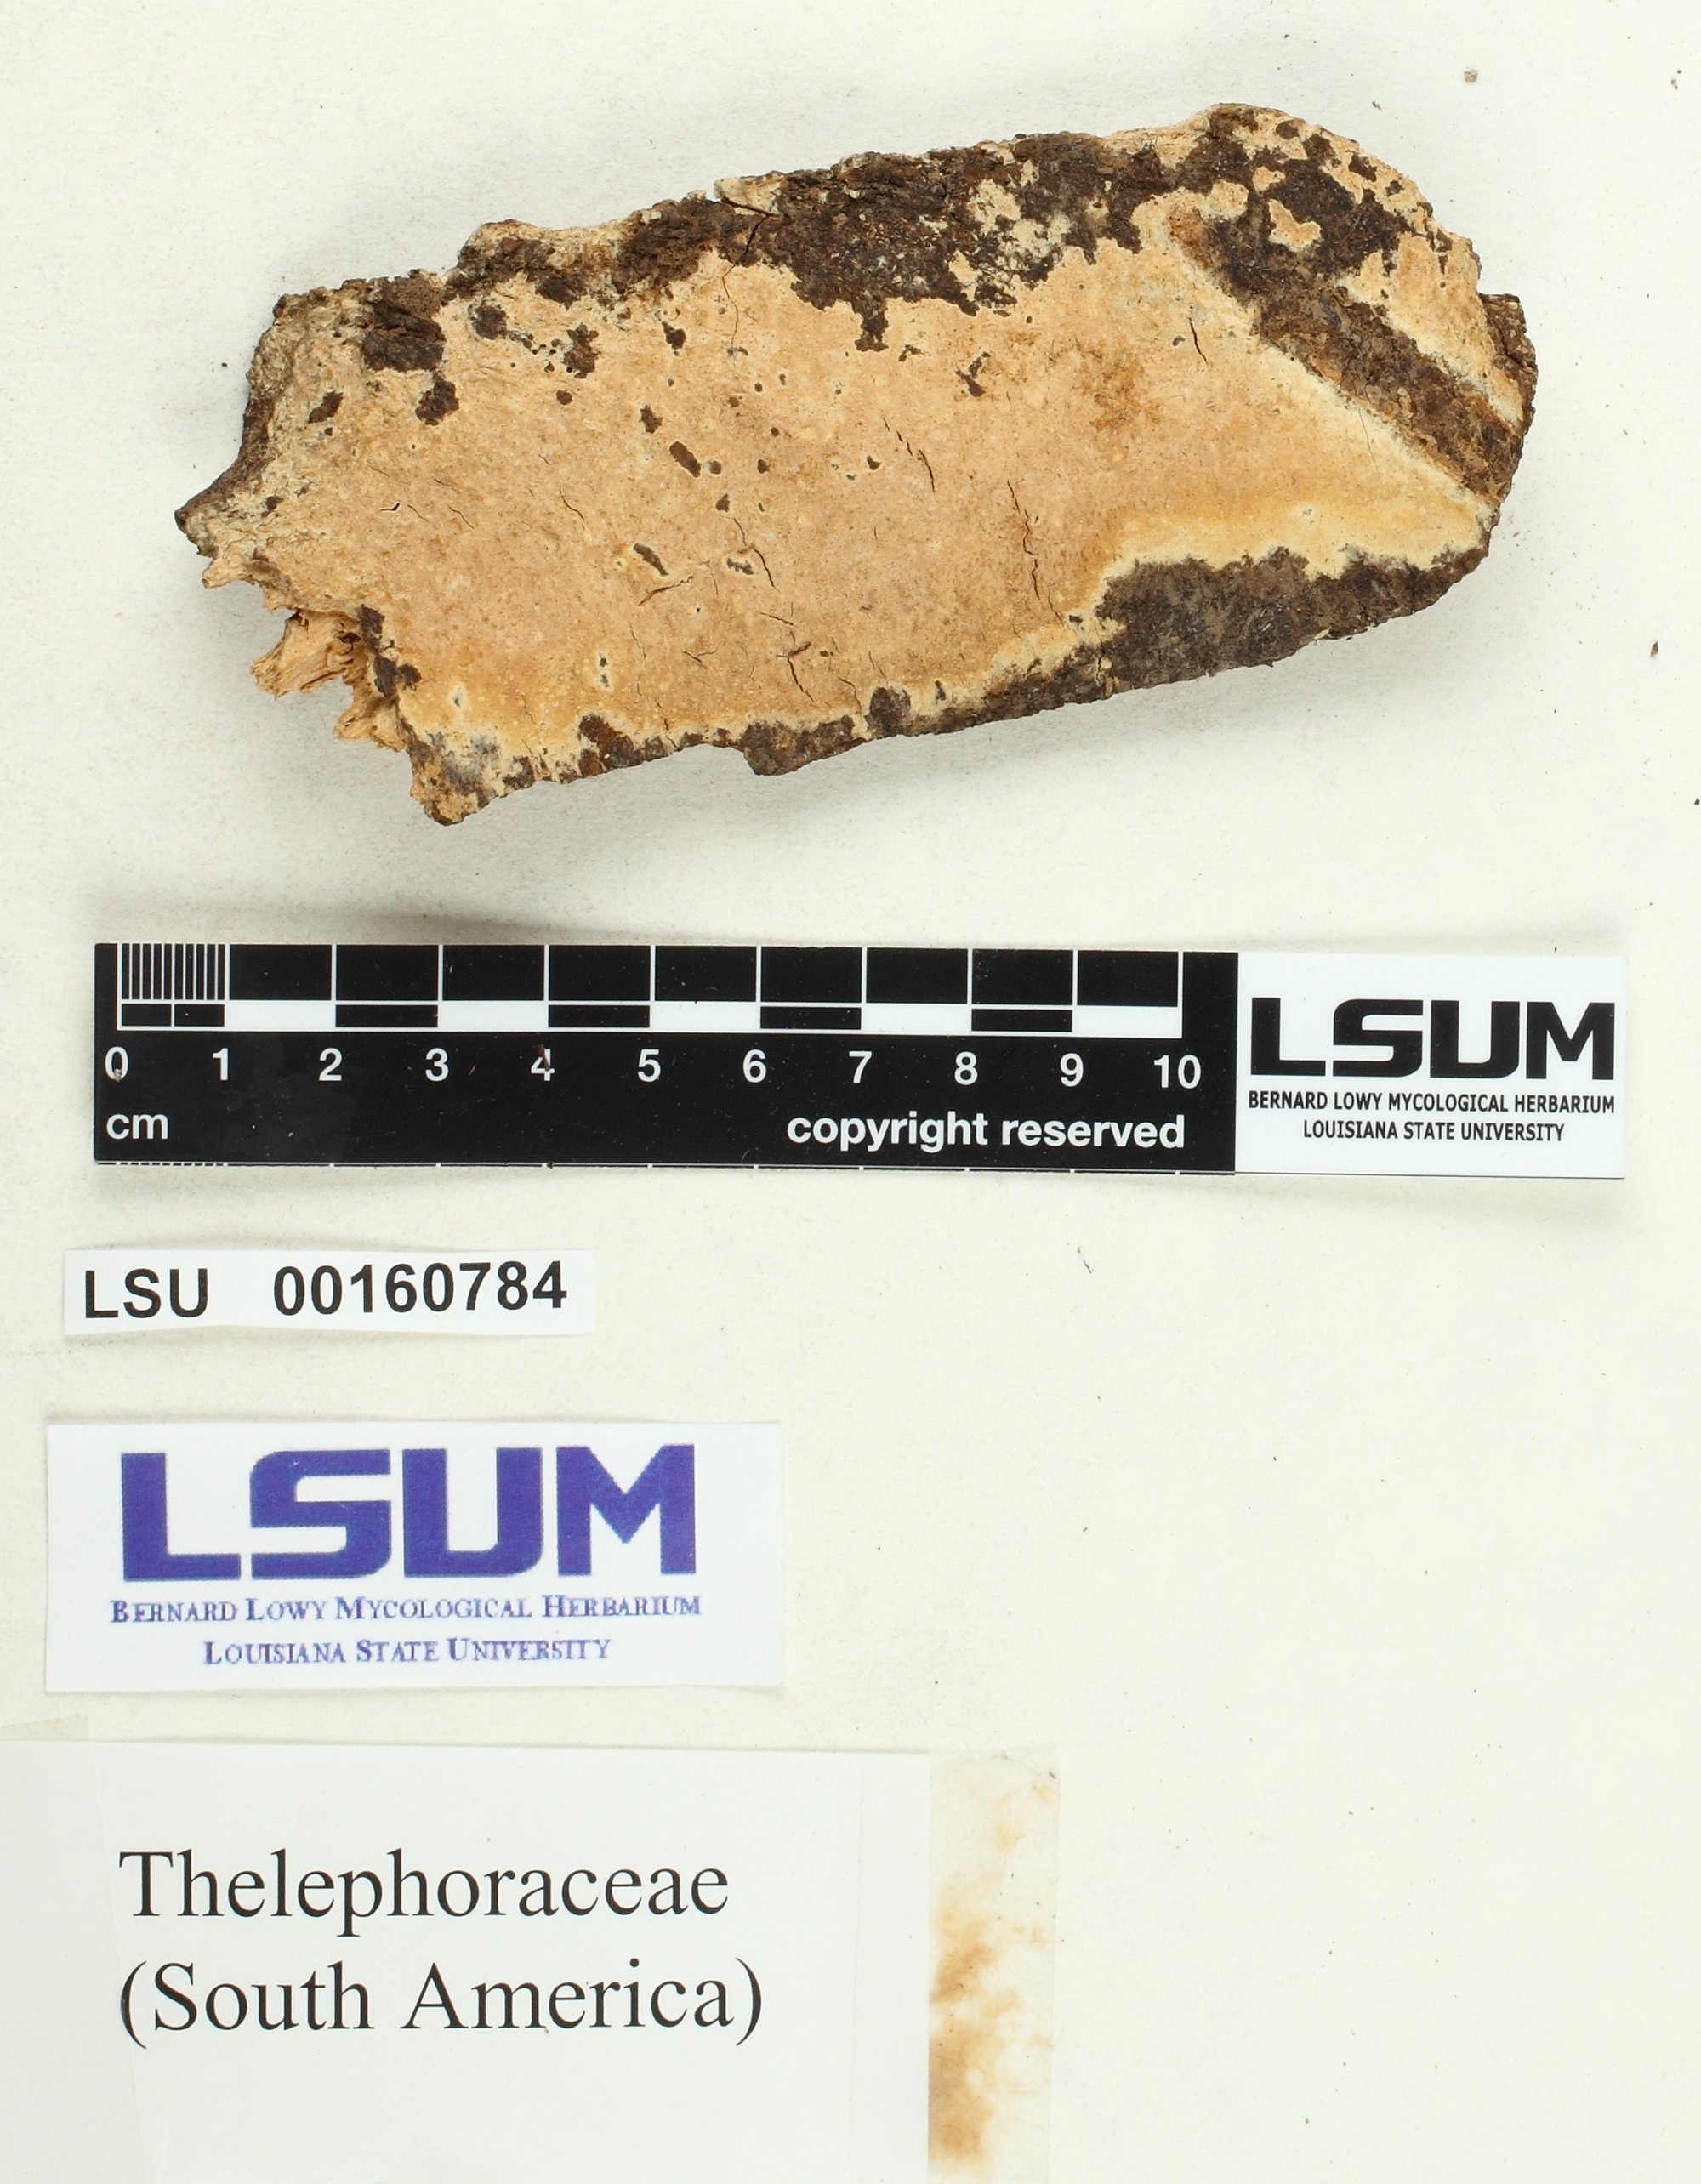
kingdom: Fungi
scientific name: Fungi
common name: Fungi
